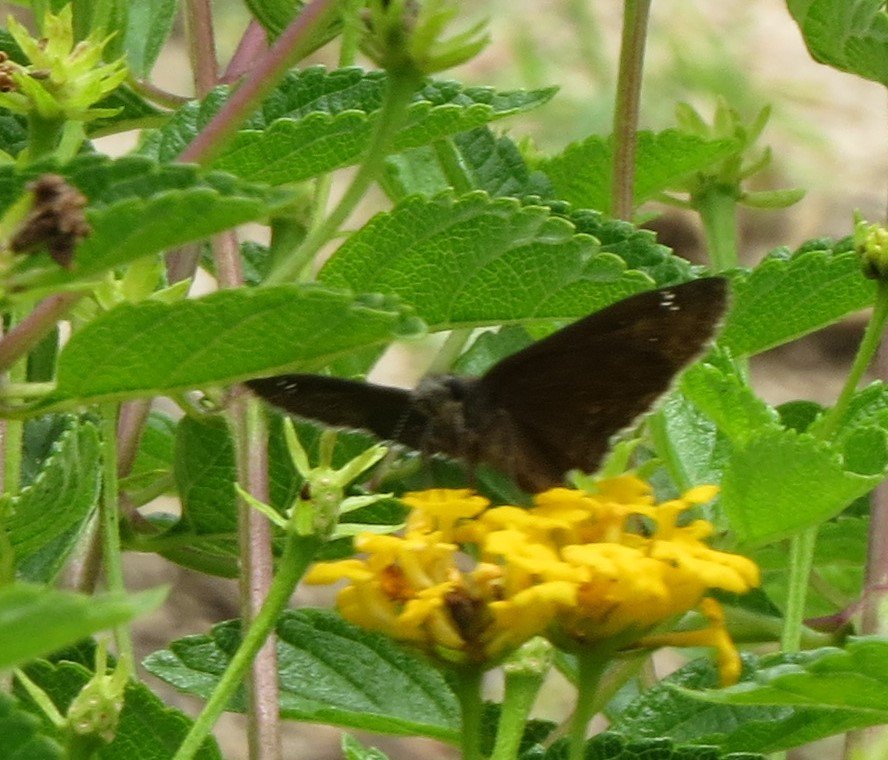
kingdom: Animalia
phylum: Arthropoda
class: Insecta
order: Lepidoptera
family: Hesperiidae
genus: Erynnis
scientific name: Erynnis zarucco
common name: Zarucco Duskywing
